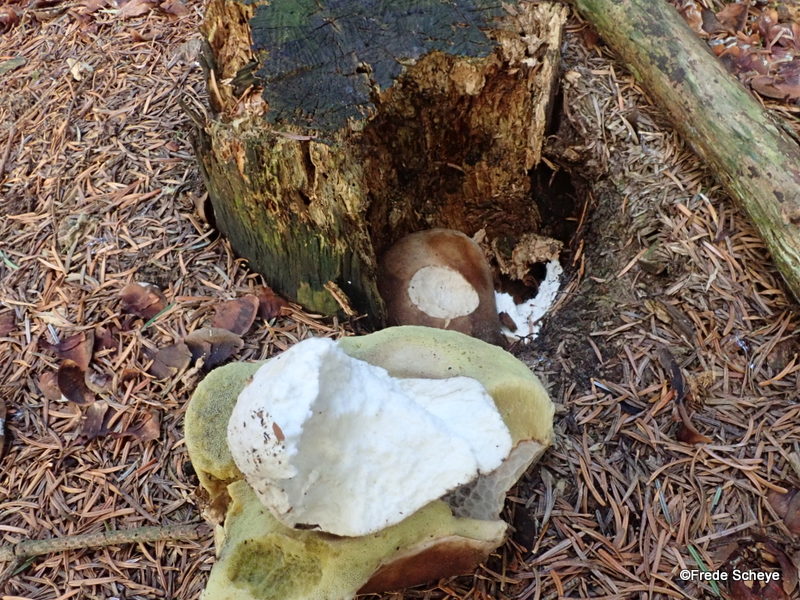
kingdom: Fungi
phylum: Basidiomycota
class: Agaricomycetes
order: Boletales
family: Boletaceae
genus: Boletus
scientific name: Boletus edulis
